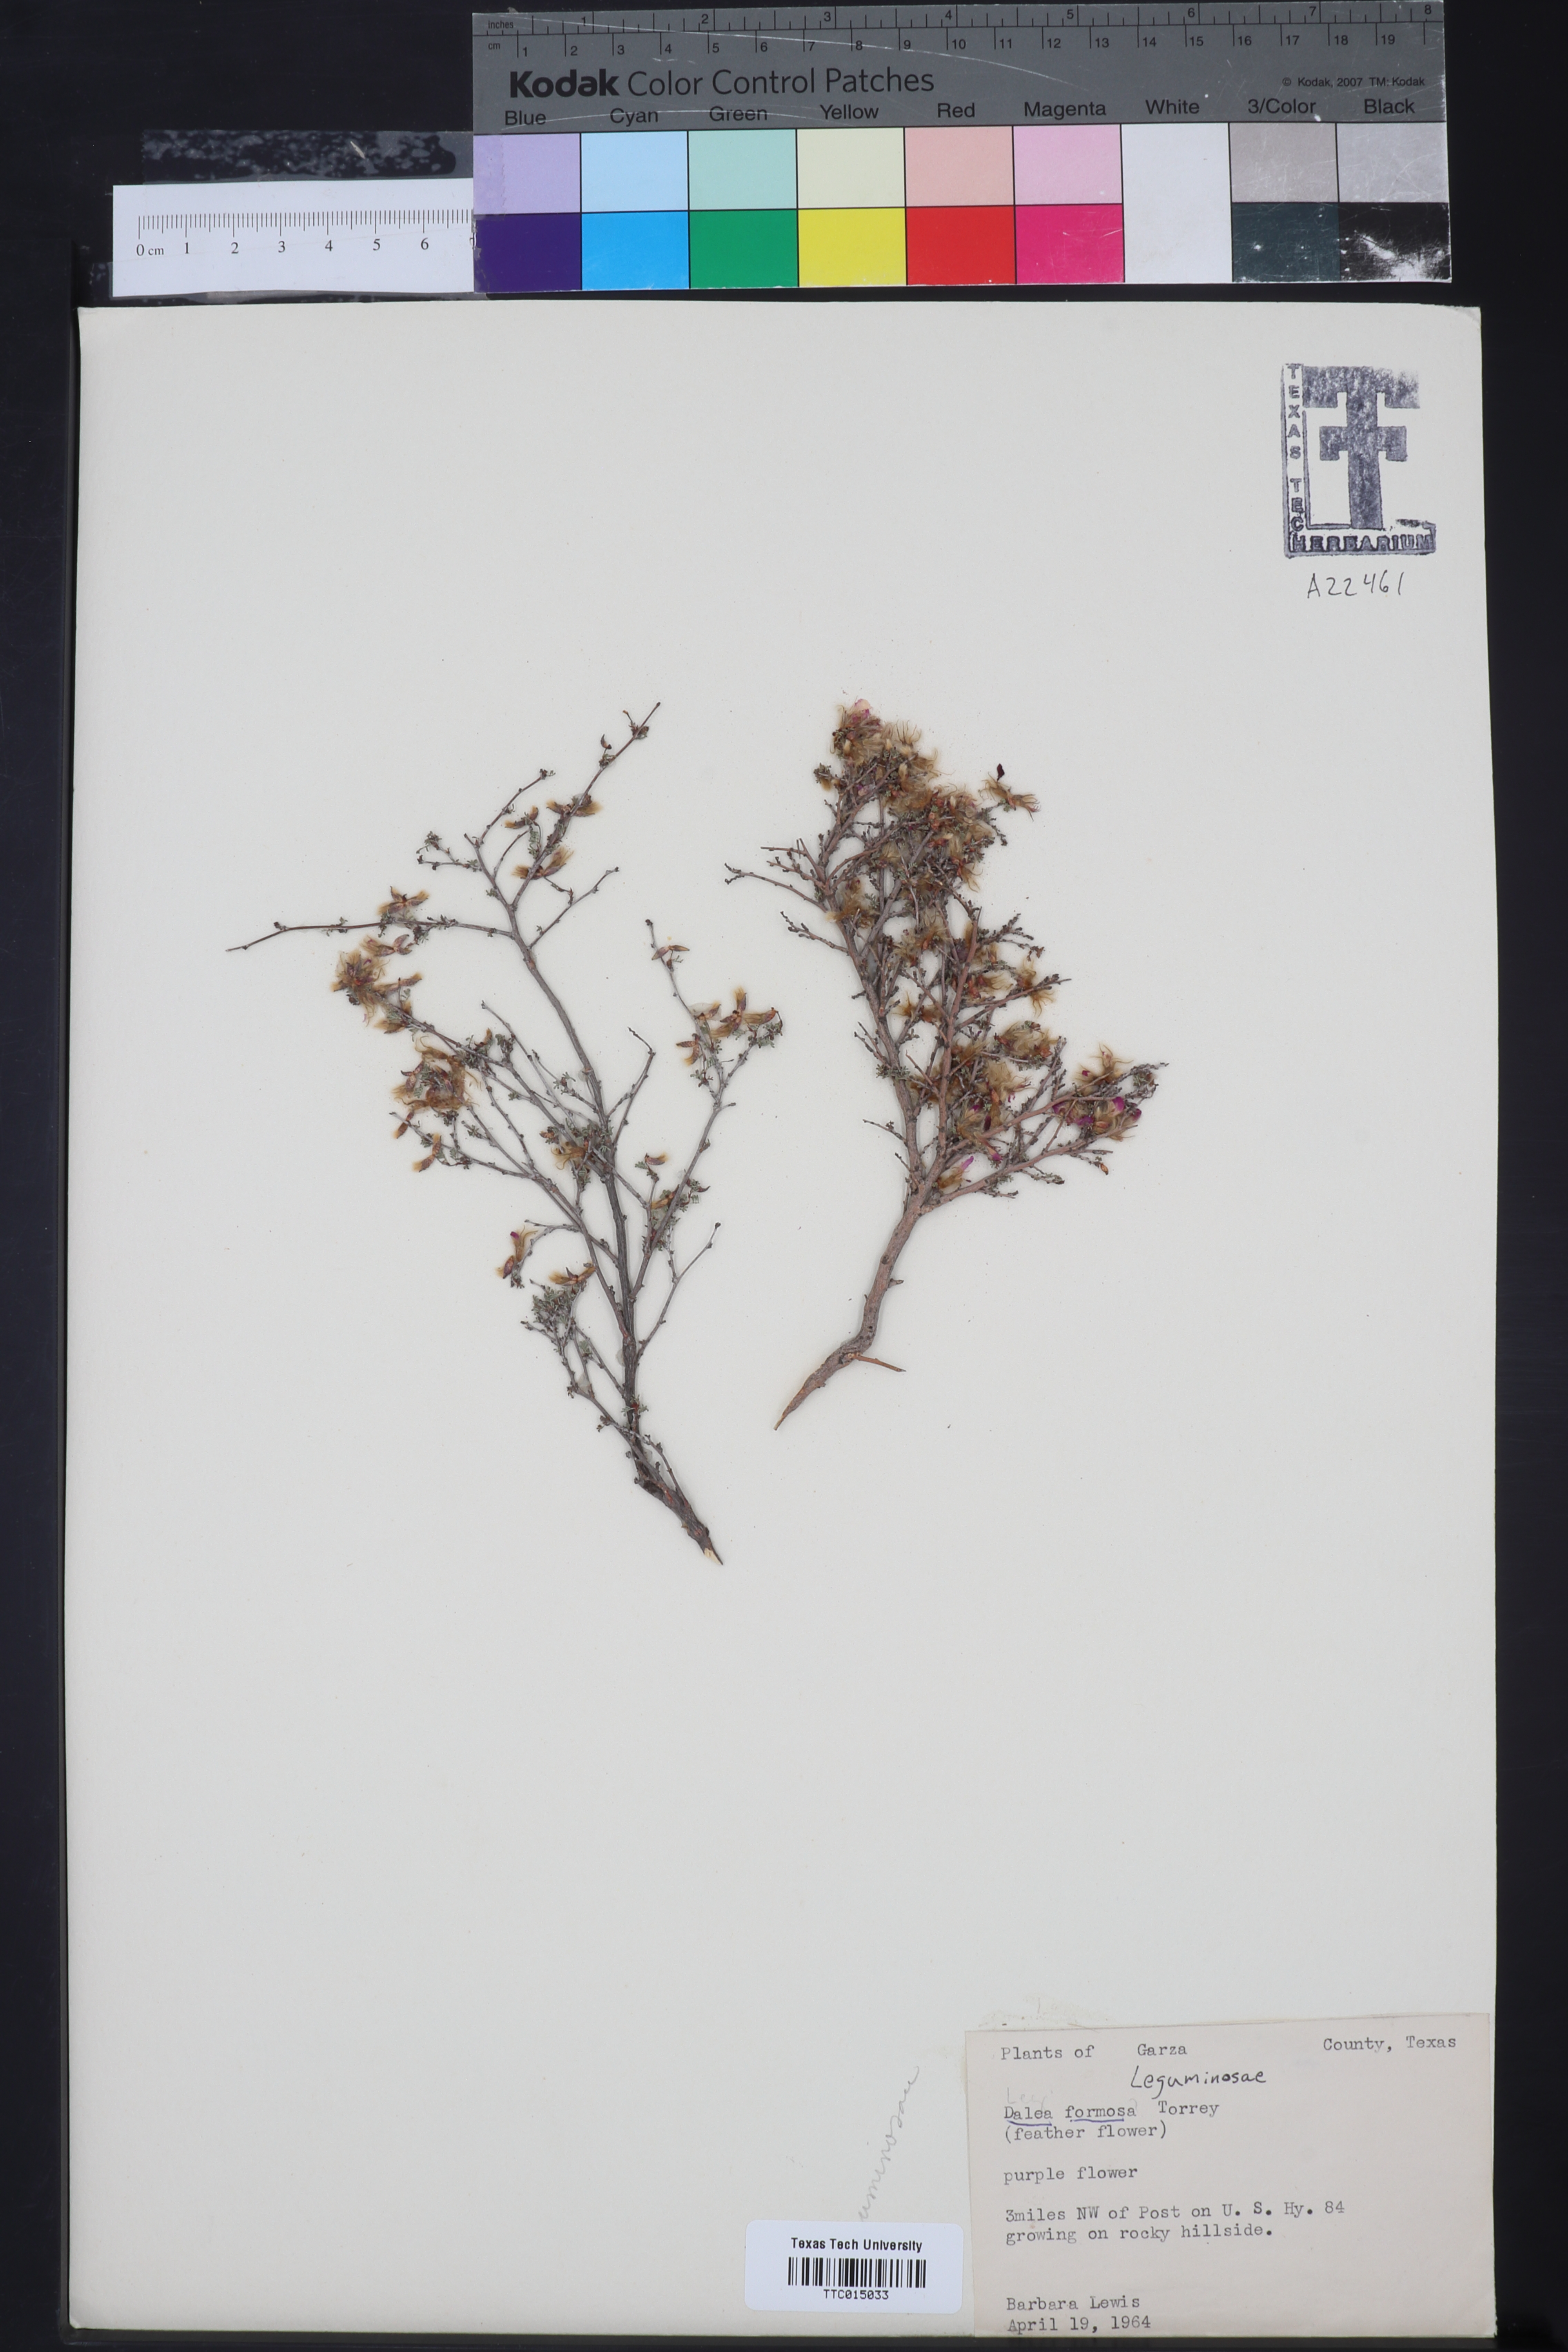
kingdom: Plantae
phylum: Tracheophyta
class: Magnoliopsida
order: Fabales
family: Fabaceae
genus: Dalea
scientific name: Dalea formosa
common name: Feather-plume dalea
